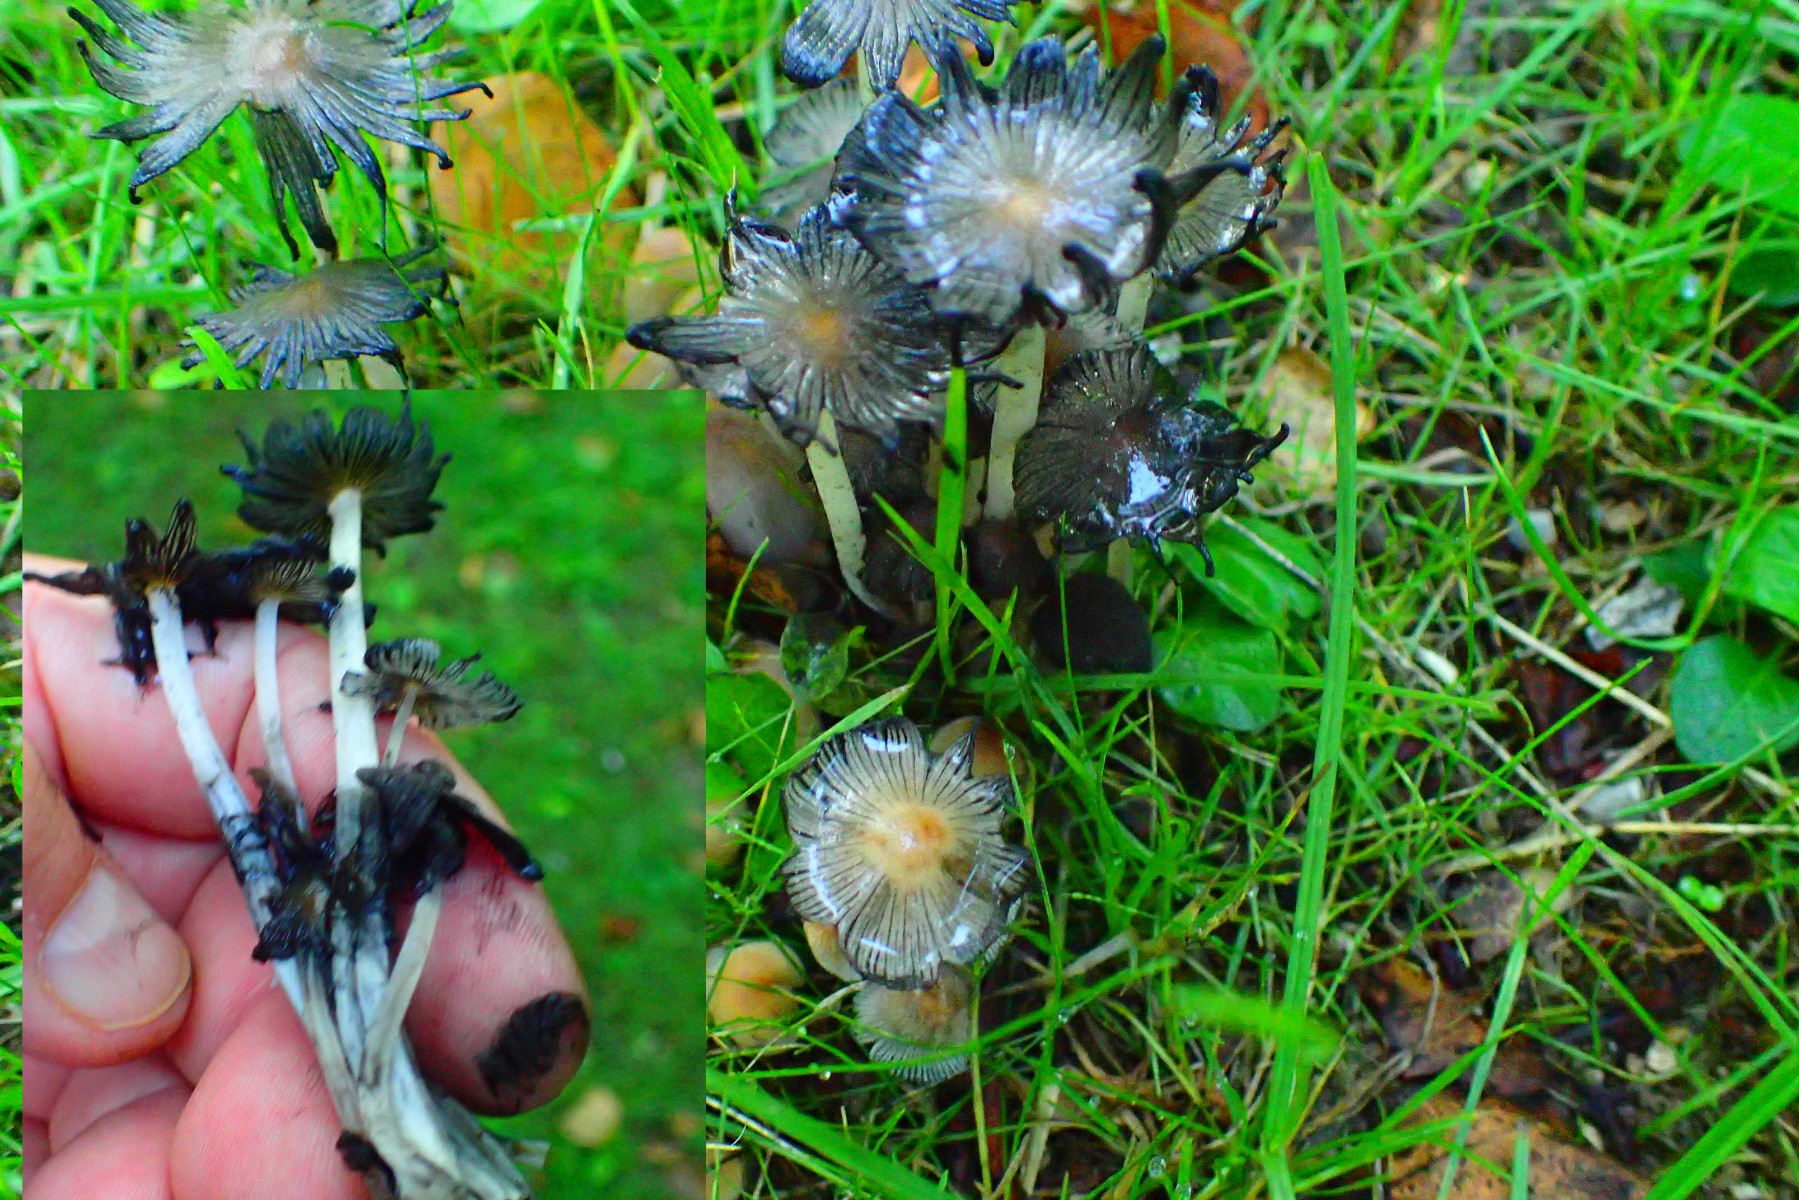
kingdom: Fungi
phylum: Basidiomycota
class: Agaricomycetes
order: Agaricales
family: Psathyrellaceae
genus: Coprinellus
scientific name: Coprinellus
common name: blækhat
